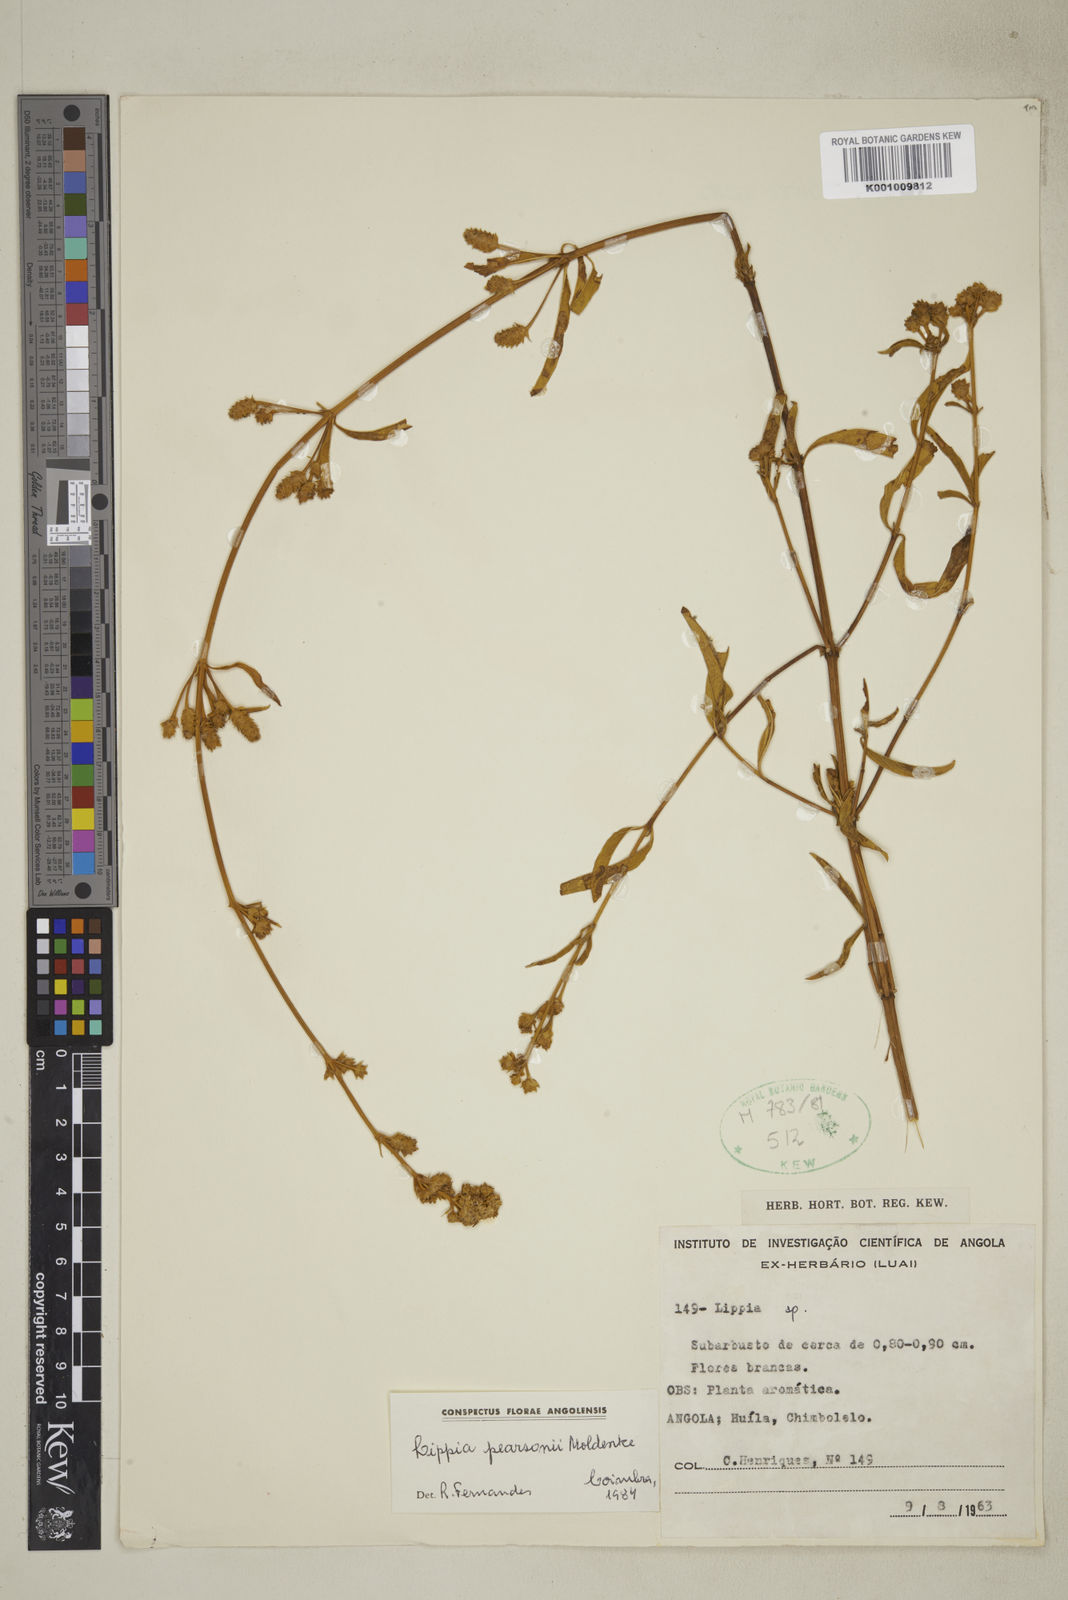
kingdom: Plantae
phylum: Tracheophyta
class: Magnoliopsida
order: Lamiales
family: Verbenaceae
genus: Lippia
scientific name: Lippia pearsonii
